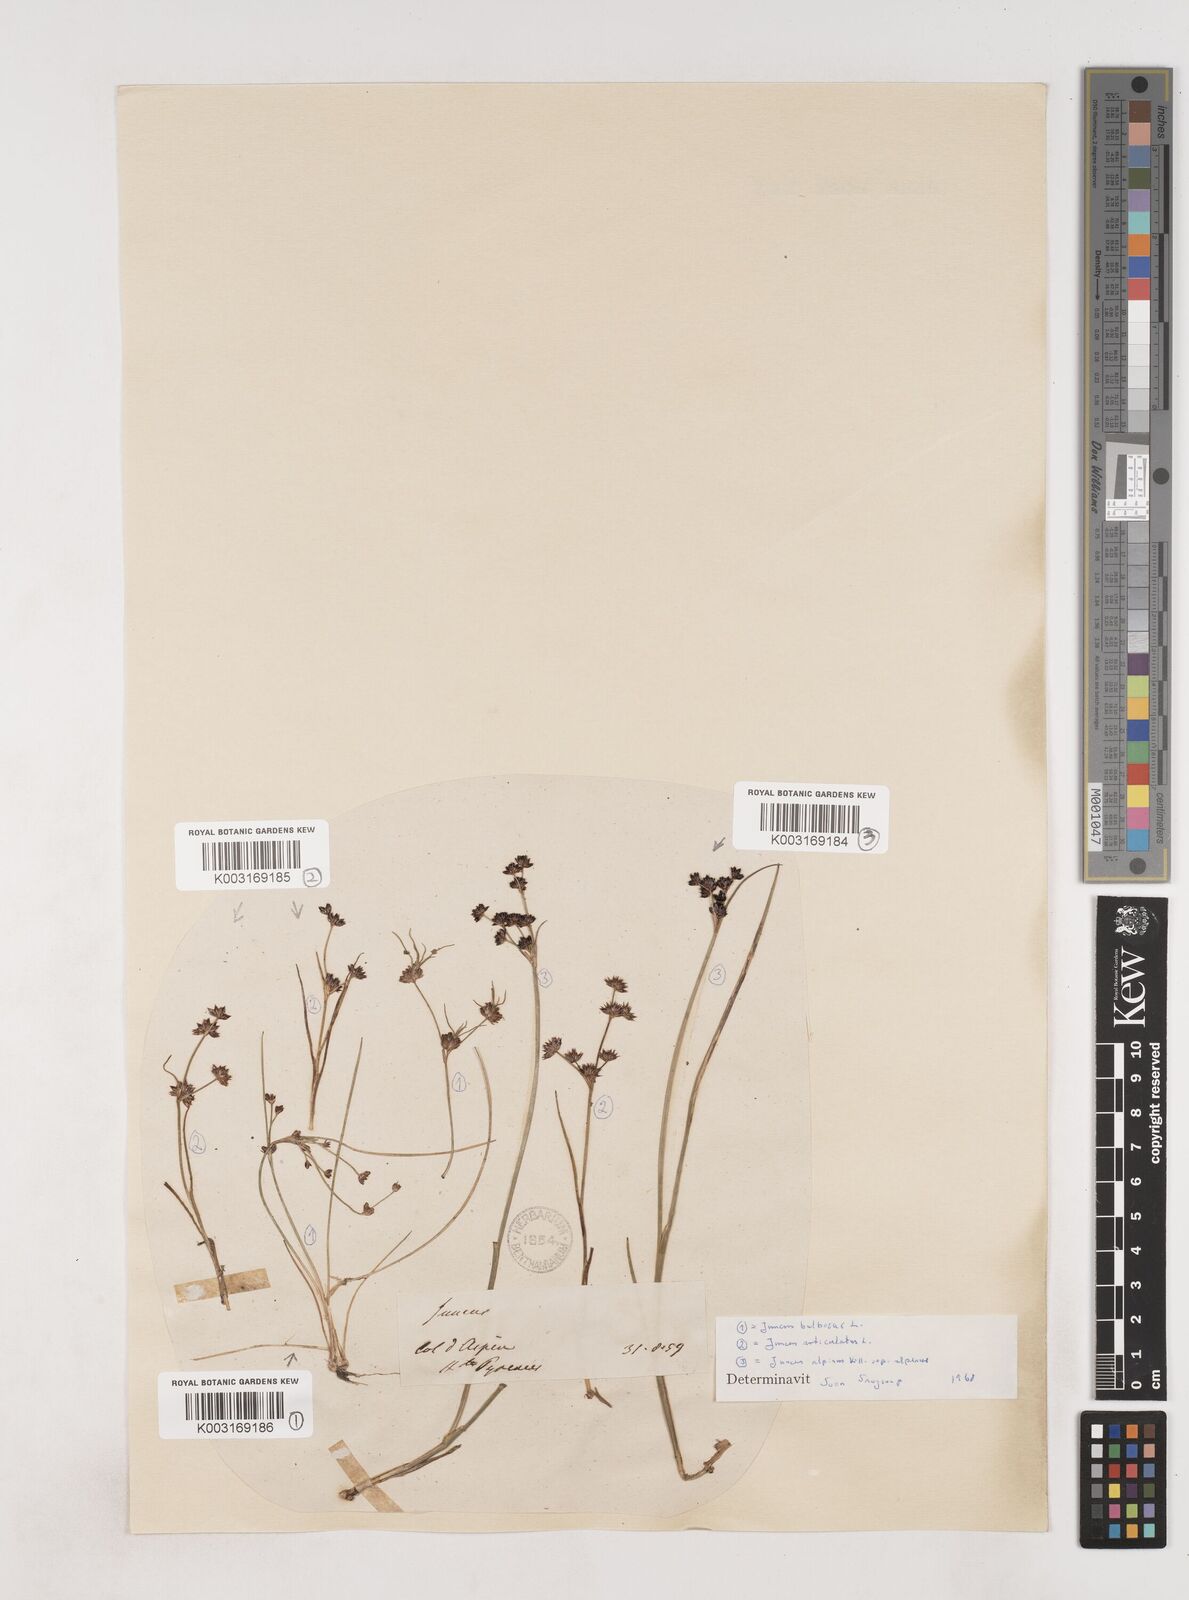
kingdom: Plantae
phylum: Tracheophyta
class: Liliopsida
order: Poales
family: Juncaceae
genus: Juncus
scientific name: Juncus bulbosus
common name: Bulbous rush
